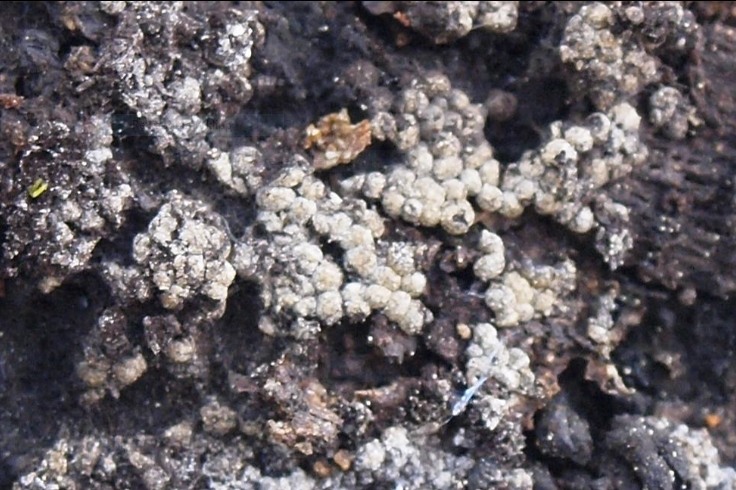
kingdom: Protozoa
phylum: Mycetozoa
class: Myxomycetes
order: Physarales
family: Physaraceae
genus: Physarum
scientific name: Physarum diderma
